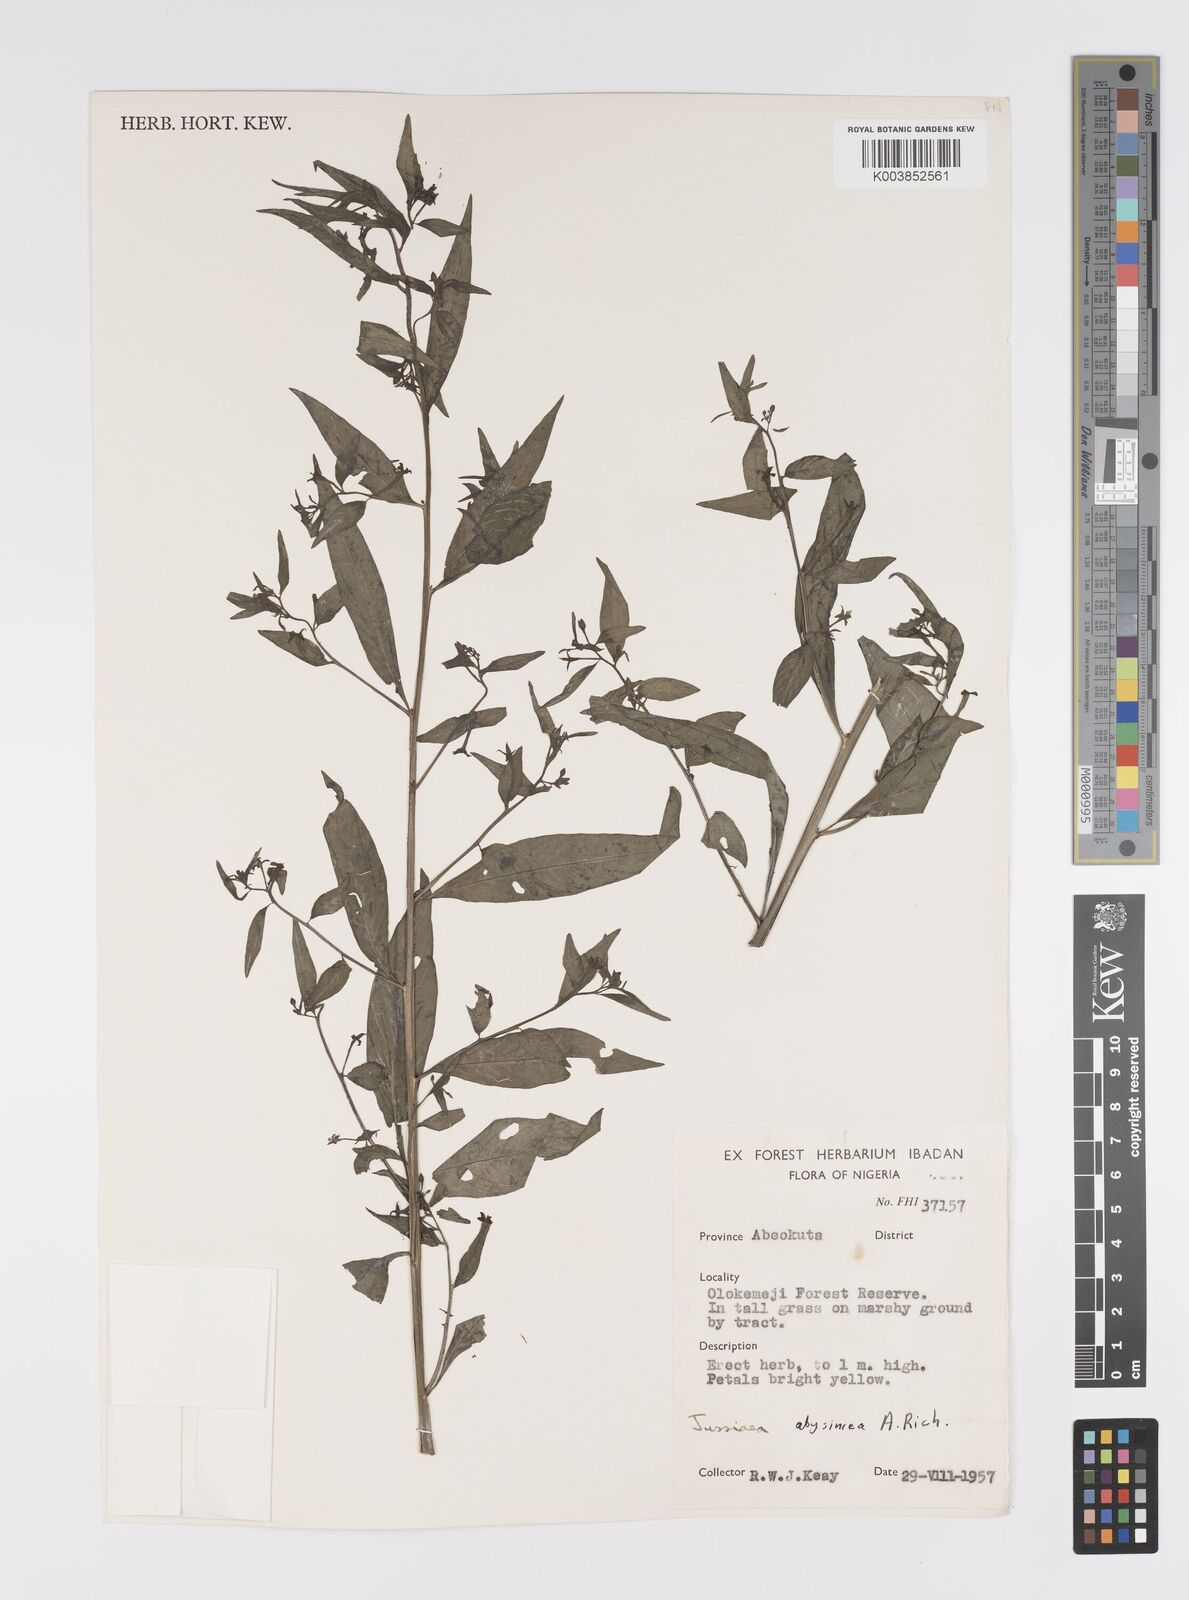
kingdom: Plantae
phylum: Tracheophyta
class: Magnoliopsida
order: Myrtales
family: Onagraceae
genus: Ludwigia
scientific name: Ludwigia abyssinica
